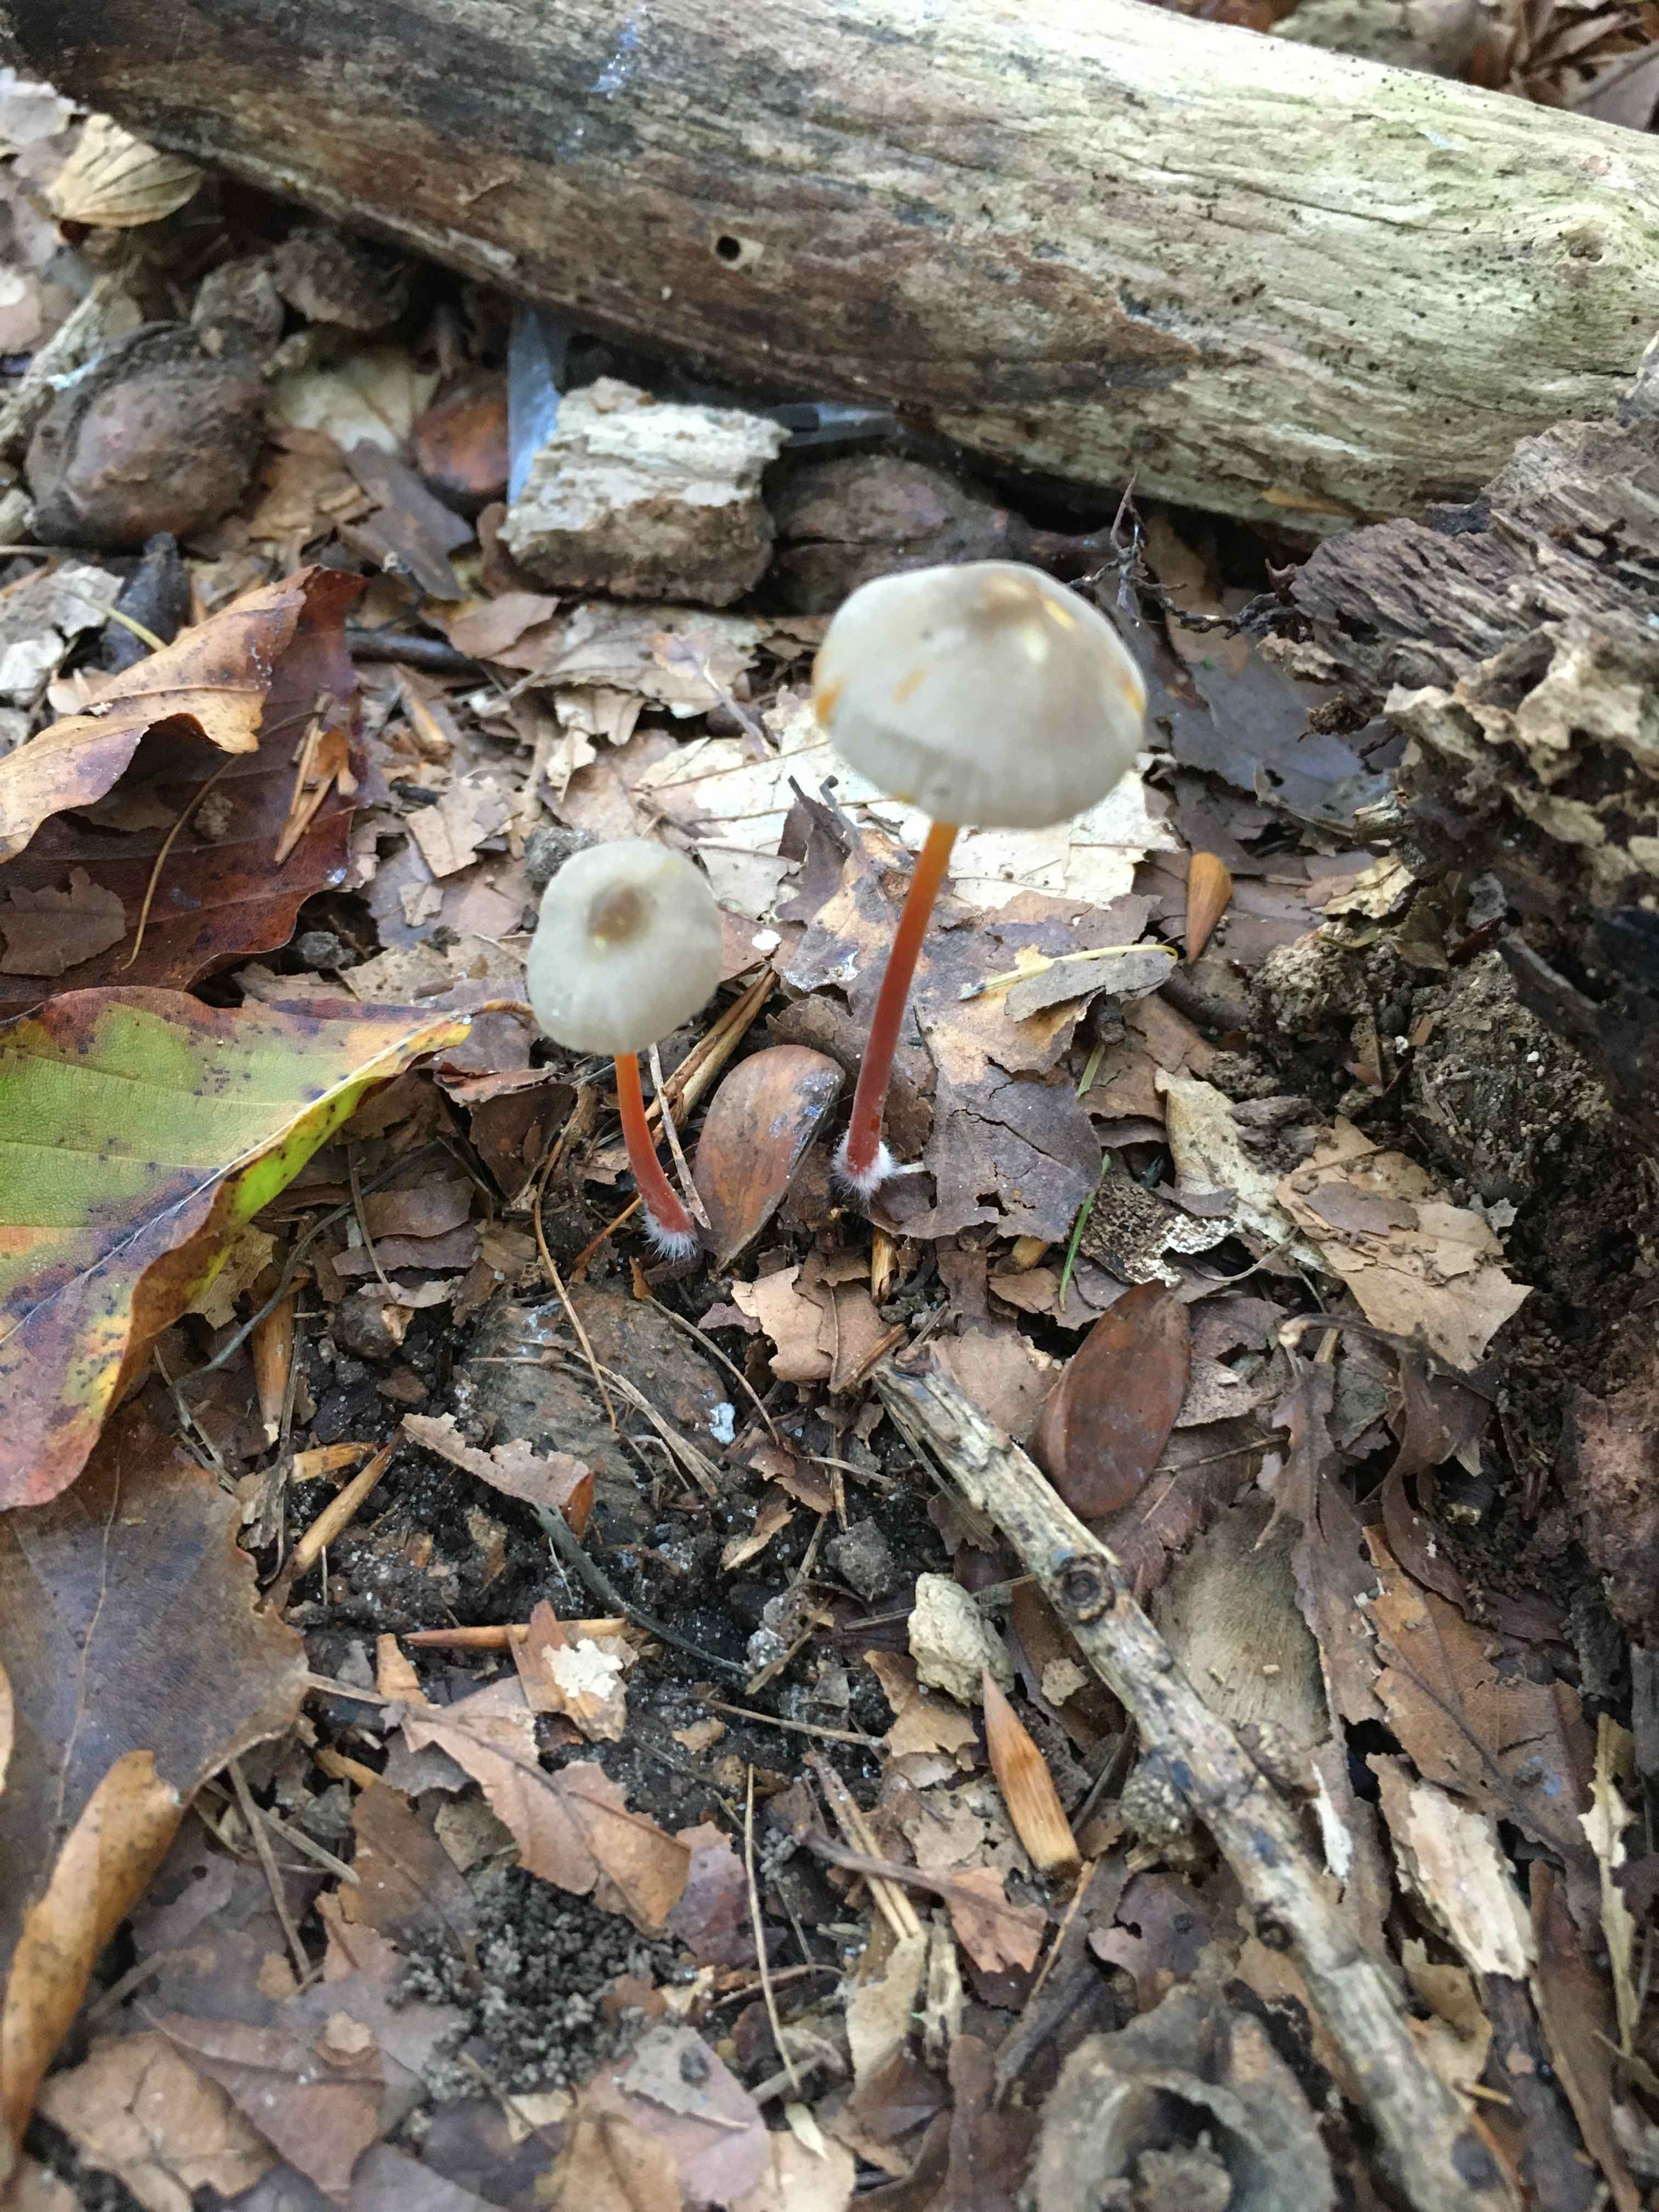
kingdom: Fungi
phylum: Basidiomycota
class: Agaricomycetes
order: Agaricales
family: Mycenaceae
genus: Mycena
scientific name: Mycena crocata
